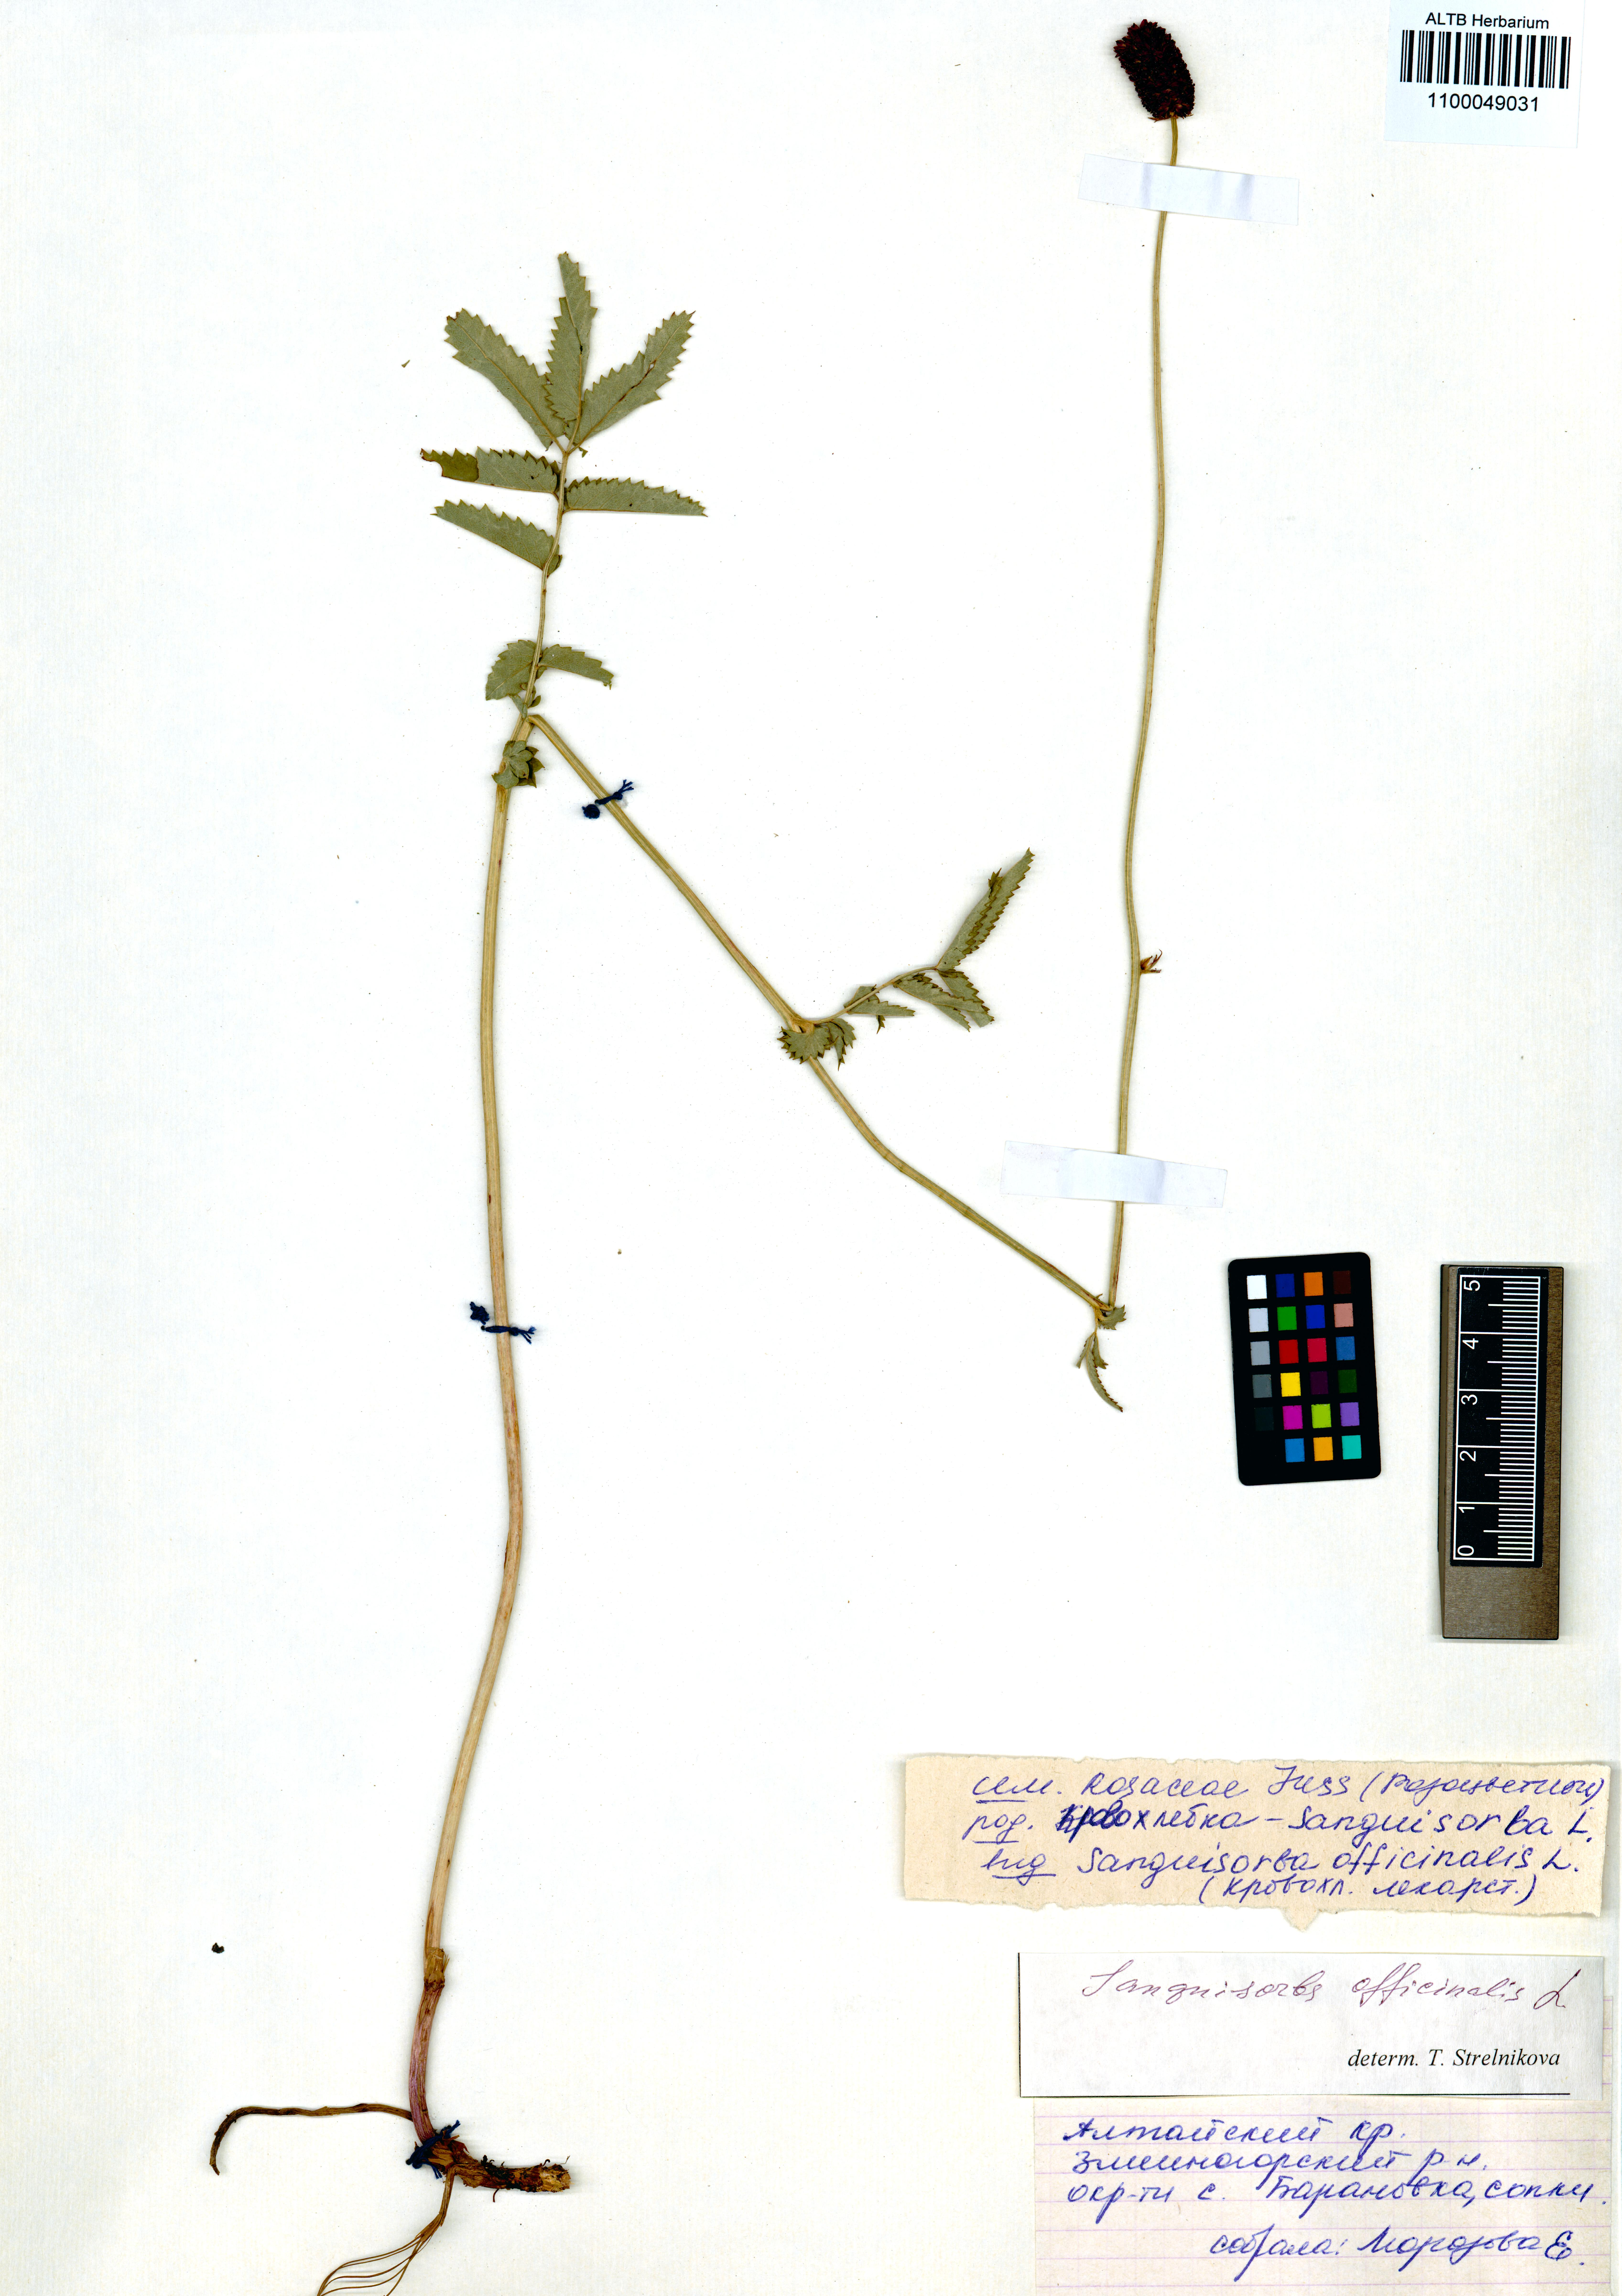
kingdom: Plantae
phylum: Tracheophyta
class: Magnoliopsida
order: Rosales
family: Rosaceae
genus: Sanguisorba
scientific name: Sanguisorba officinalis
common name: Great burnet
